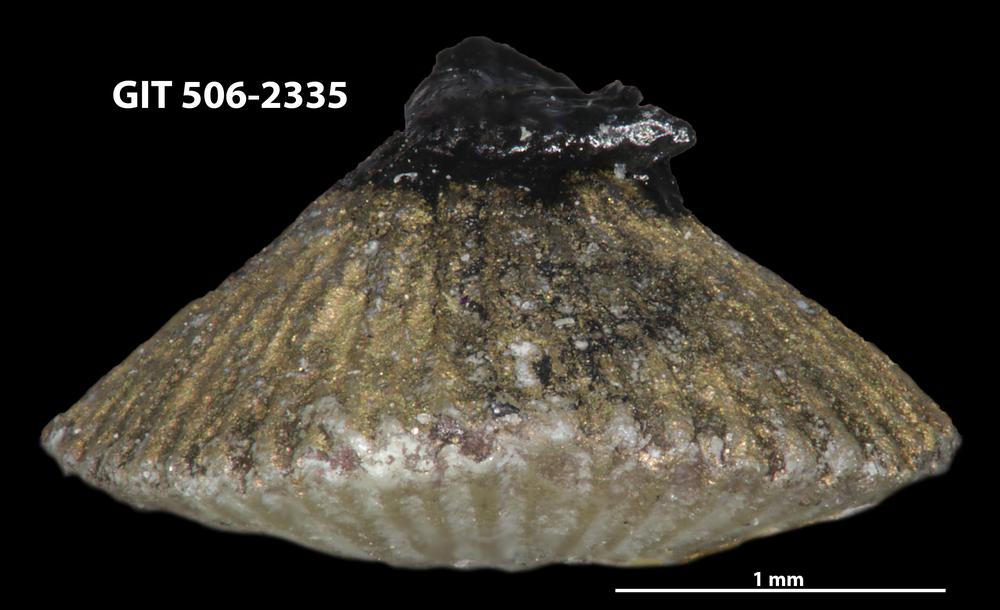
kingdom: Animalia
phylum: Brachiopoda
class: Rhynchonellata
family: Skenidiidae
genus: Skenidioides
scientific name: Skenidioides Orthis acuta
